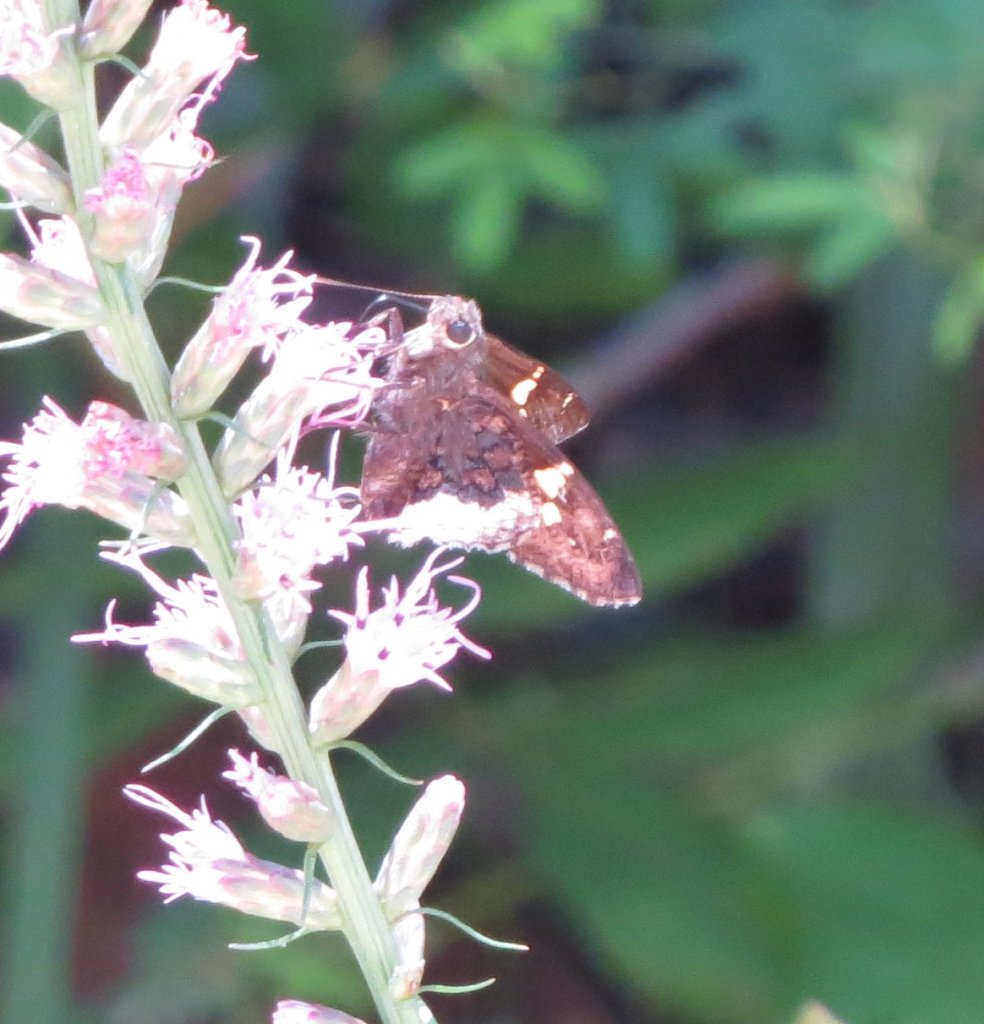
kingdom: Animalia
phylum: Arthropoda
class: Insecta
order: Lepidoptera
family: Hesperiidae
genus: Achalarus
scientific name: Achalarus lyciades
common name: Hoary Edge
